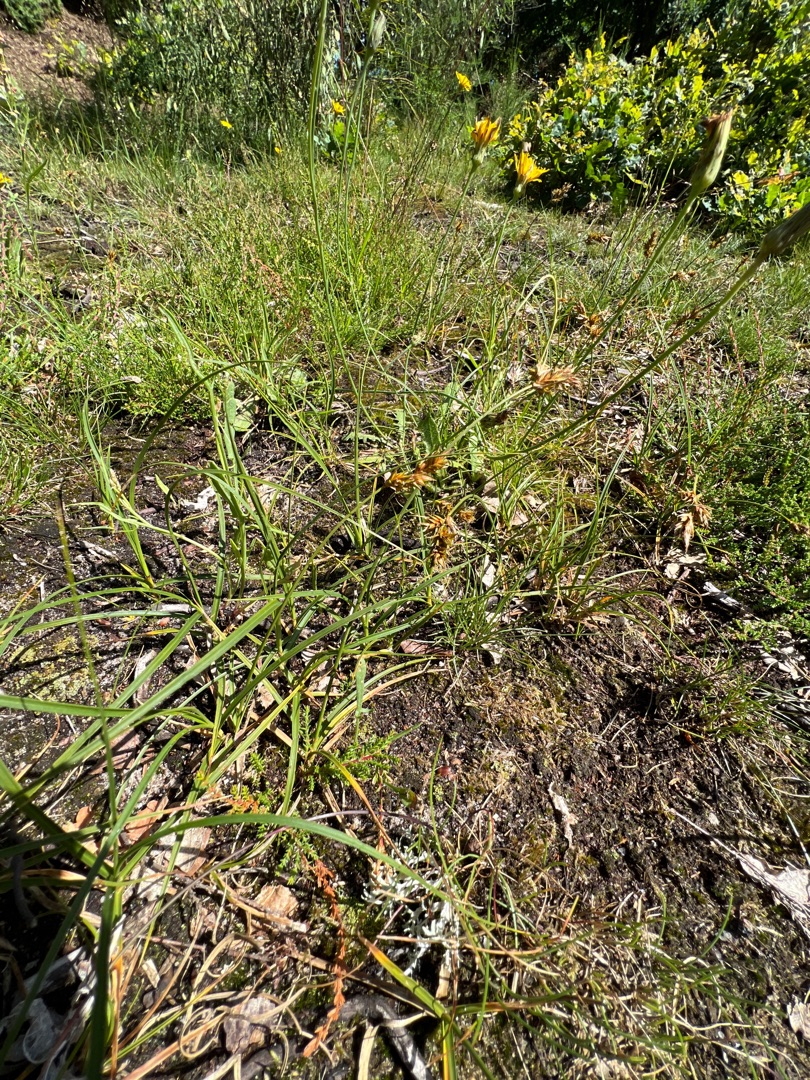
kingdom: Plantae
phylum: Tracheophyta
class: Liliopsida
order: Poales
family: Cyperaceae
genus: Carex
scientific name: Carex arenaria
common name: Sand-star
